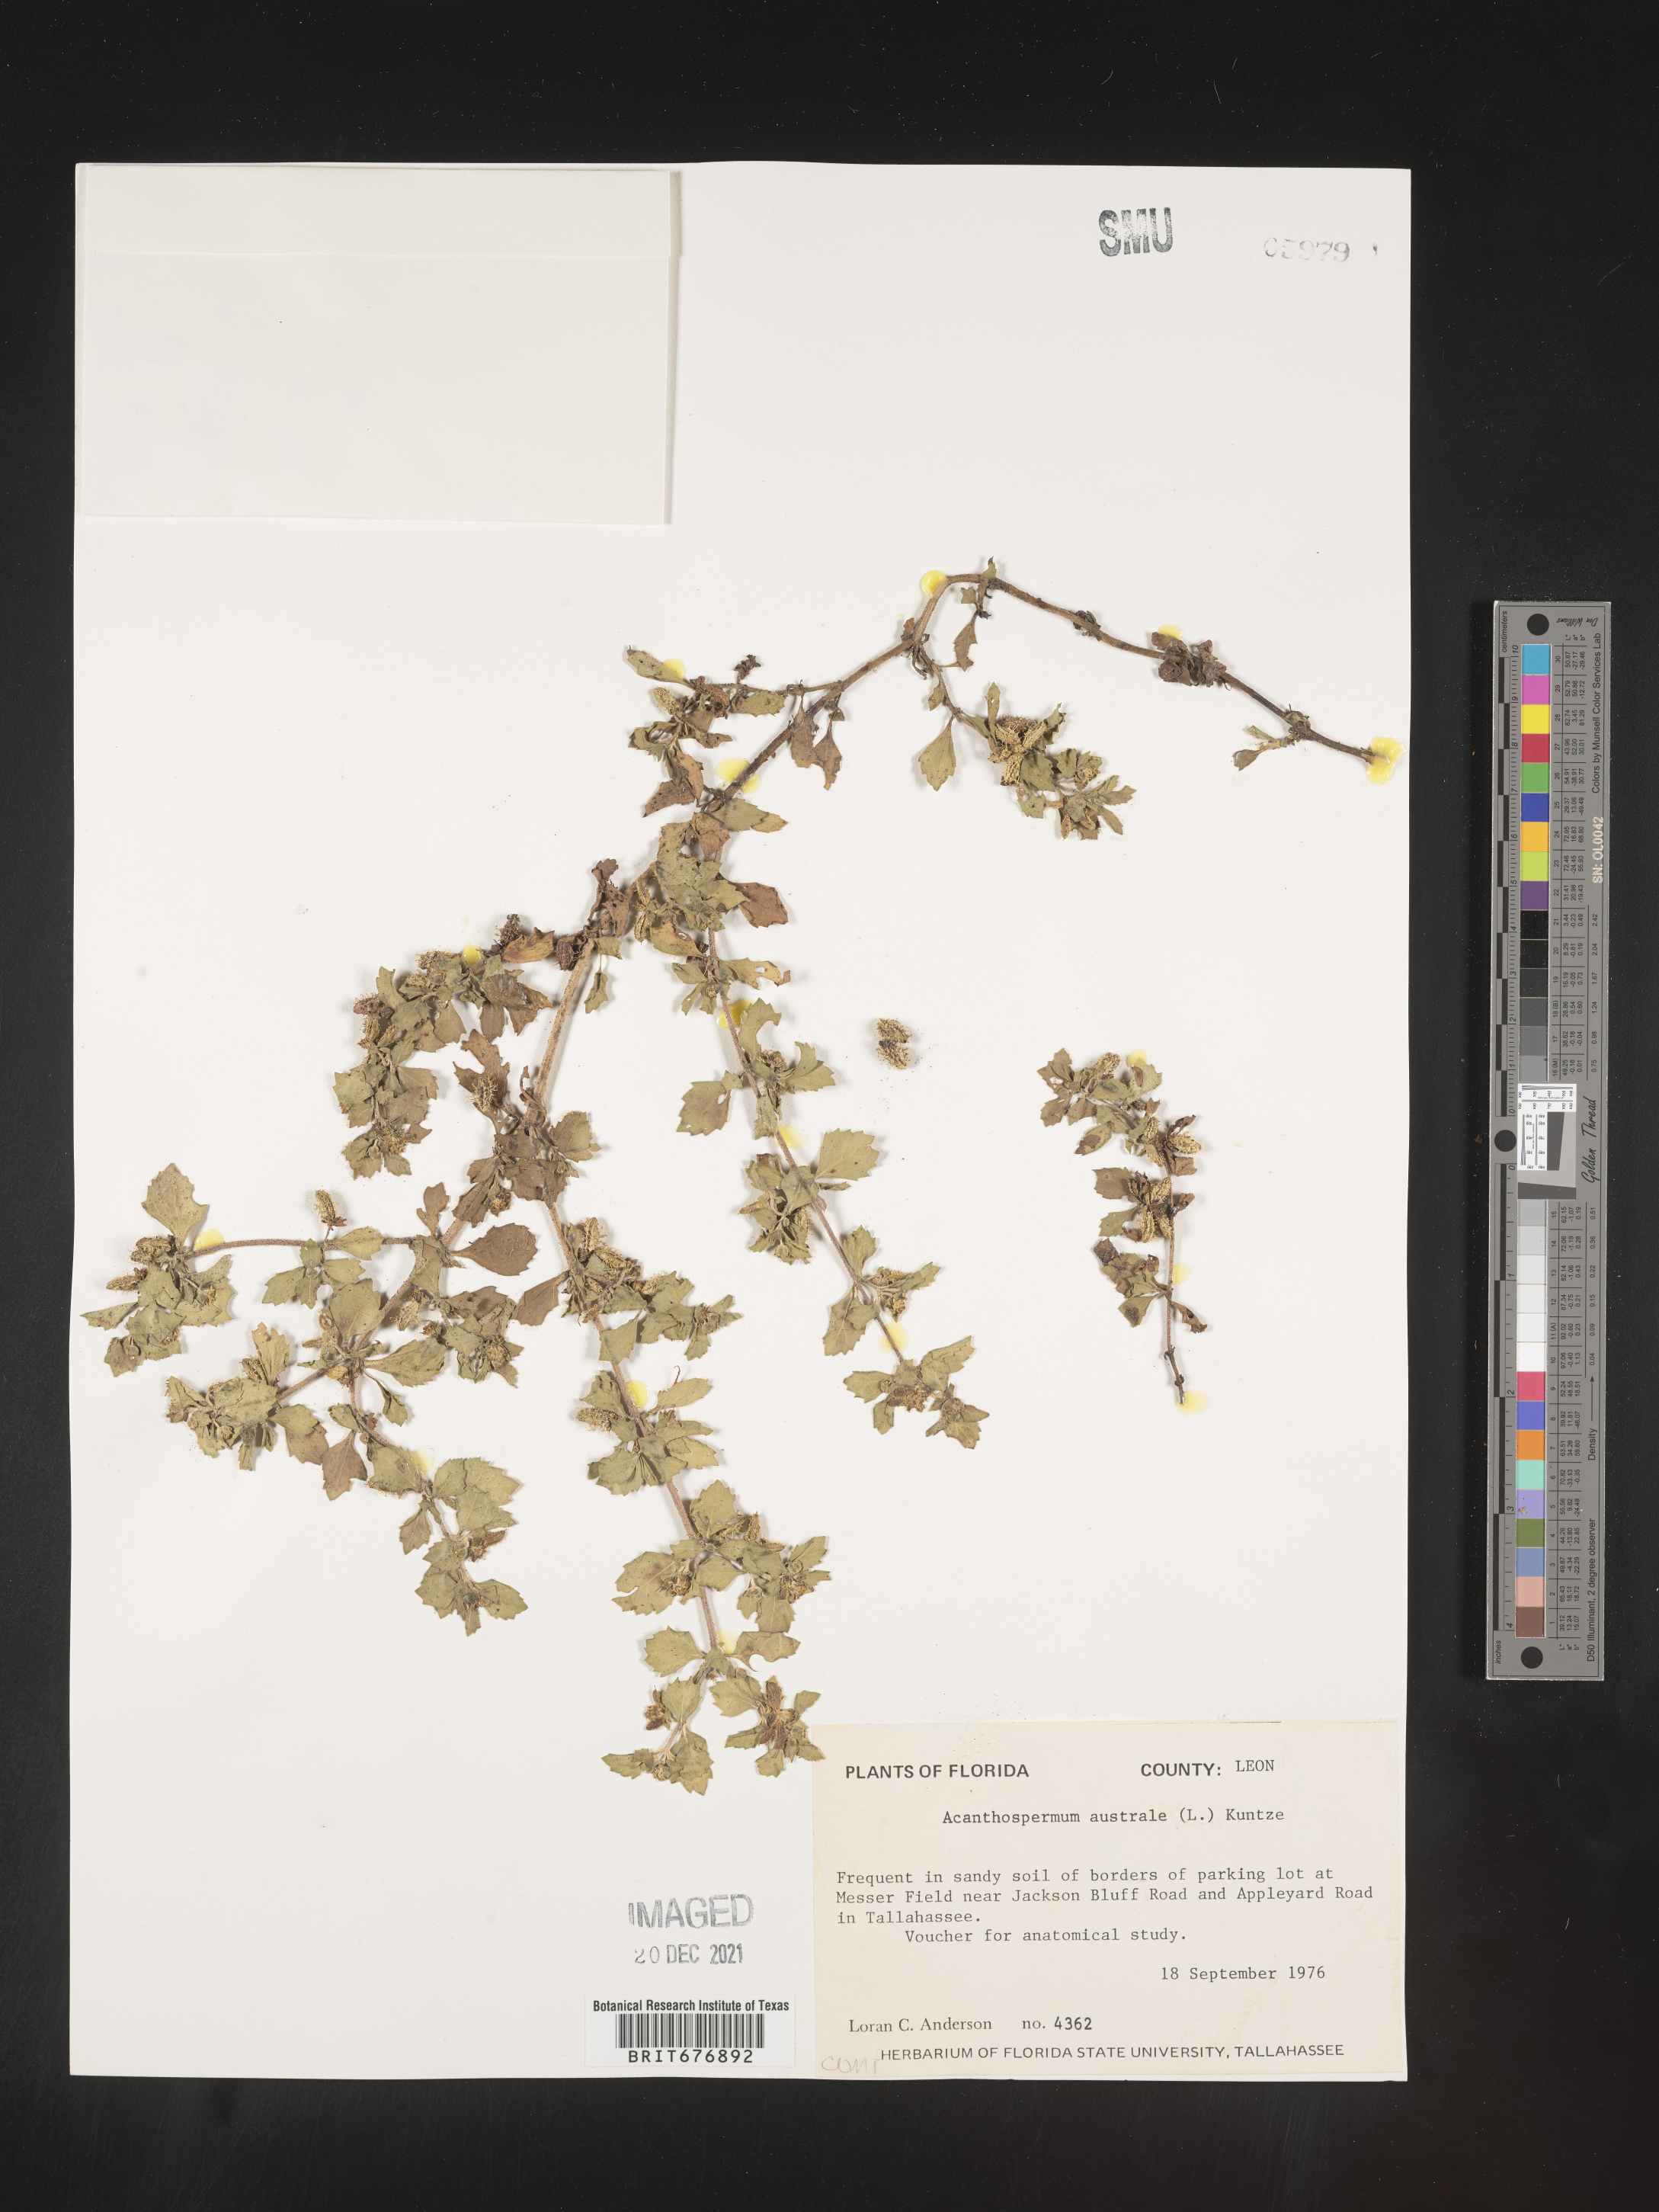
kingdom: Plantae
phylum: Tracheophyta
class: Magnoliopsida
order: Asterales
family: Asteraceae
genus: Acanthospermum
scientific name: Acanthospermum australe
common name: Paraguayan starbur
